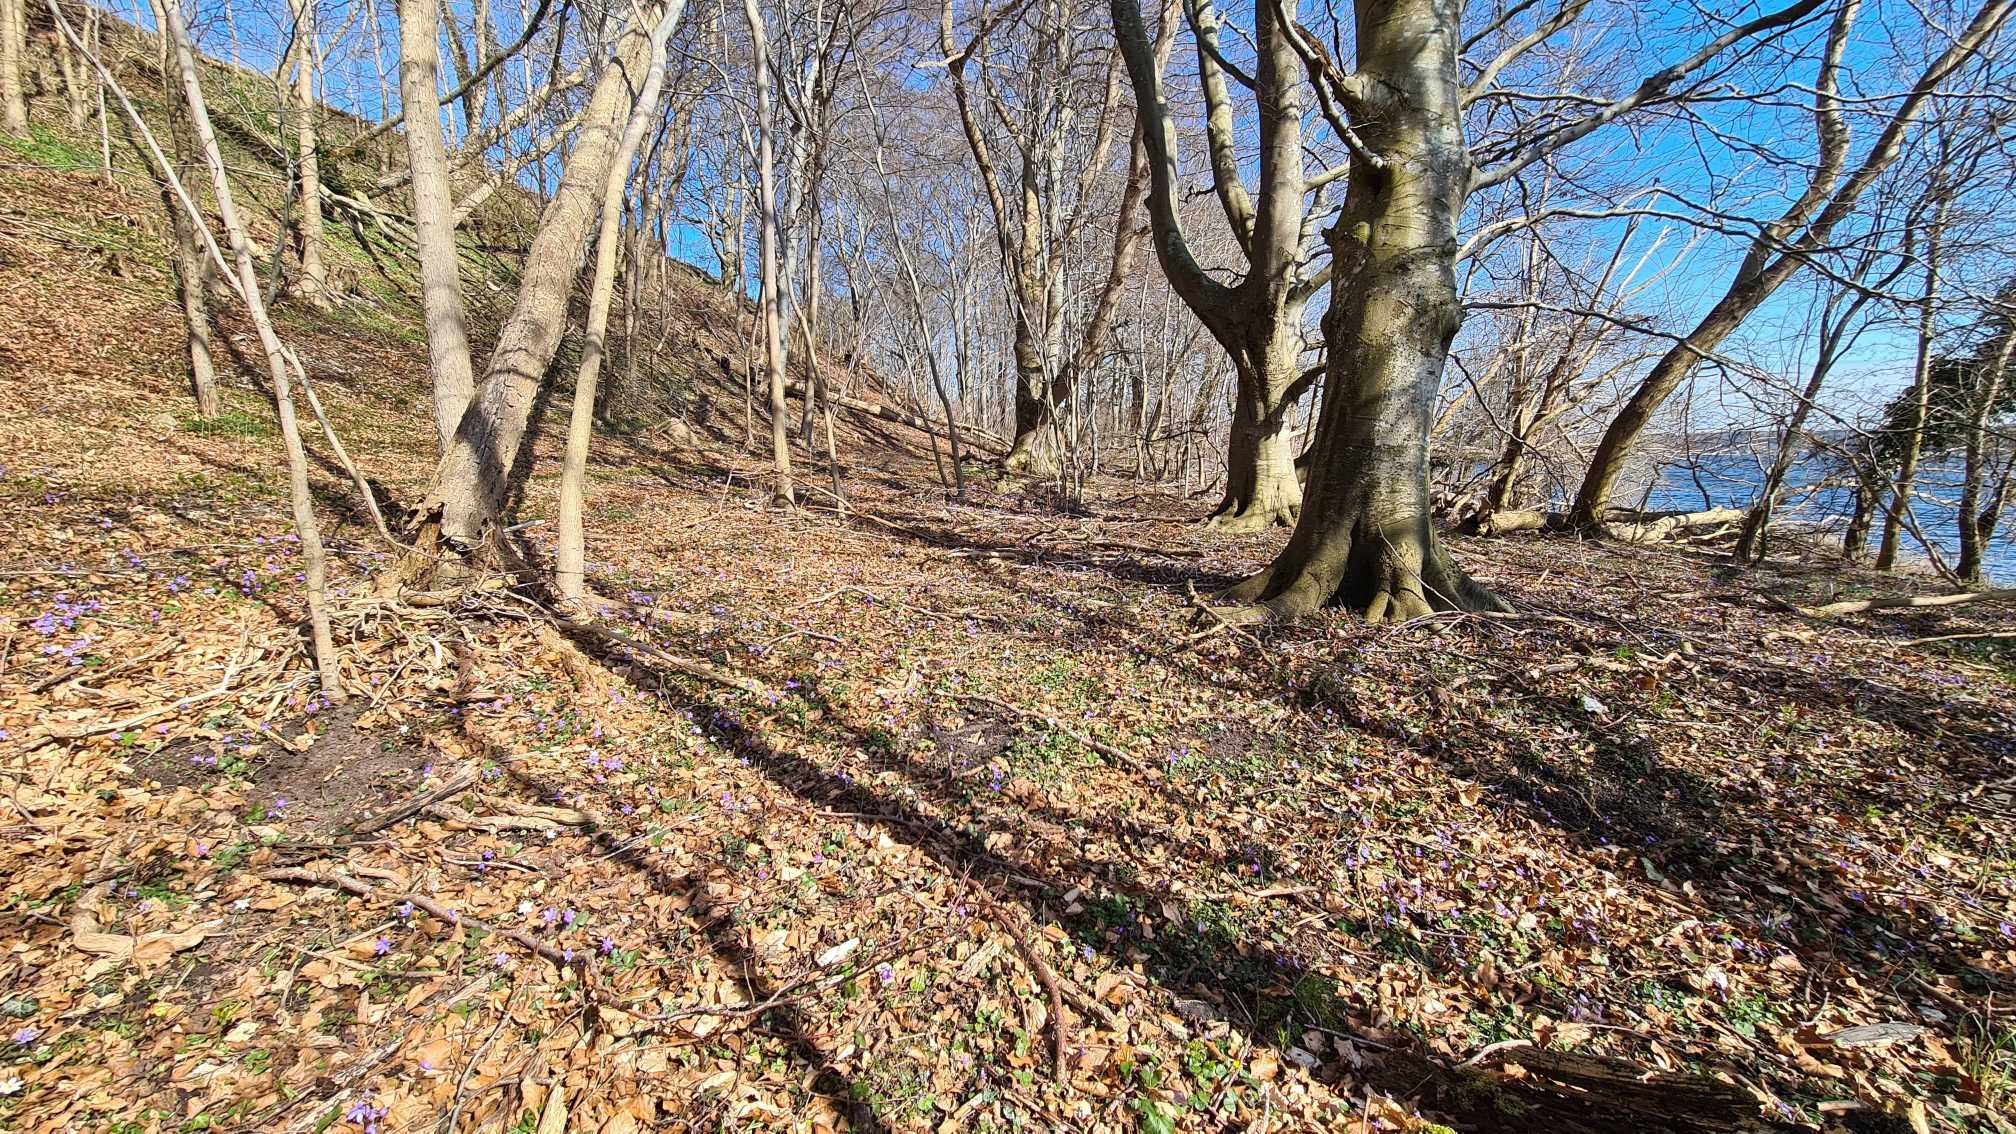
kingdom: Plantae
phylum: Tracheophyta
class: Magnoliopsida
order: Ranunculales
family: Ranunculaceae
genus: Hepatica
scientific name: Hepatica nobilis
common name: Blå anemone
